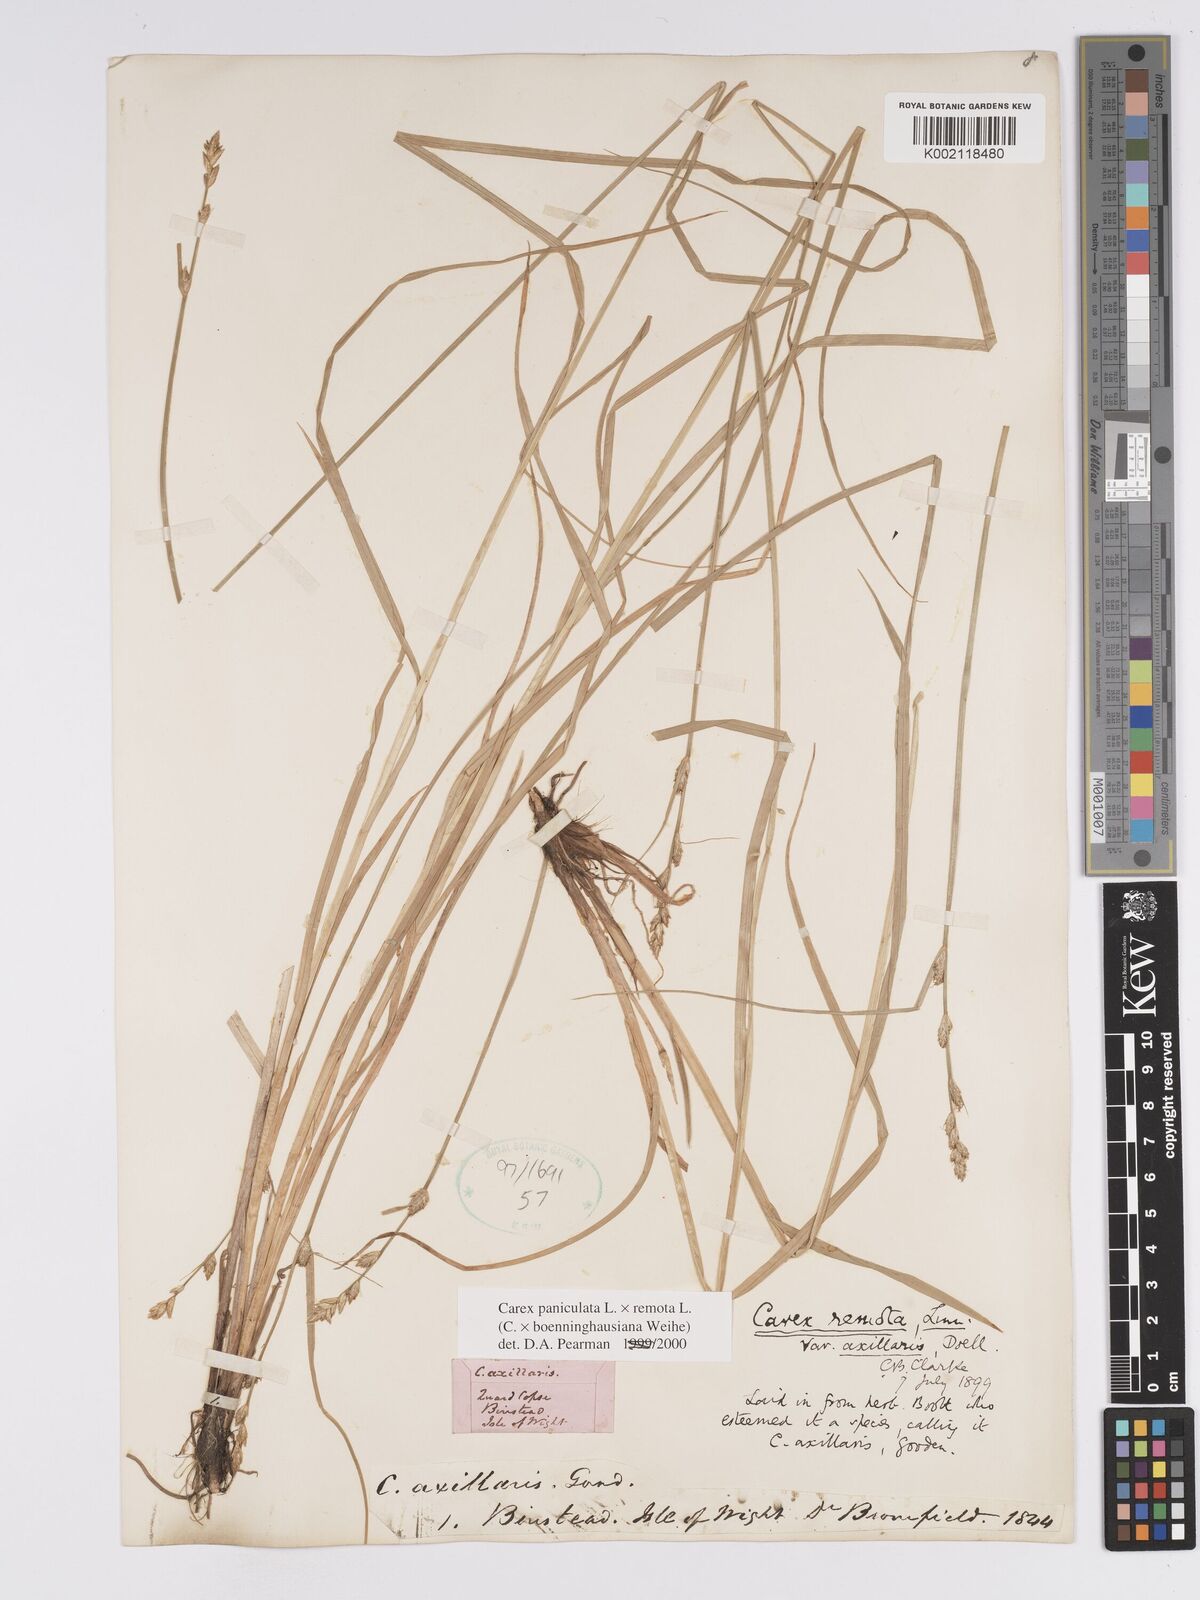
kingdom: Plantae
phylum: Tracheophyta
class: Liliopsida
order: Poales
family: Cyperaceae
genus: Carex
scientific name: Carex boenninghausiana
